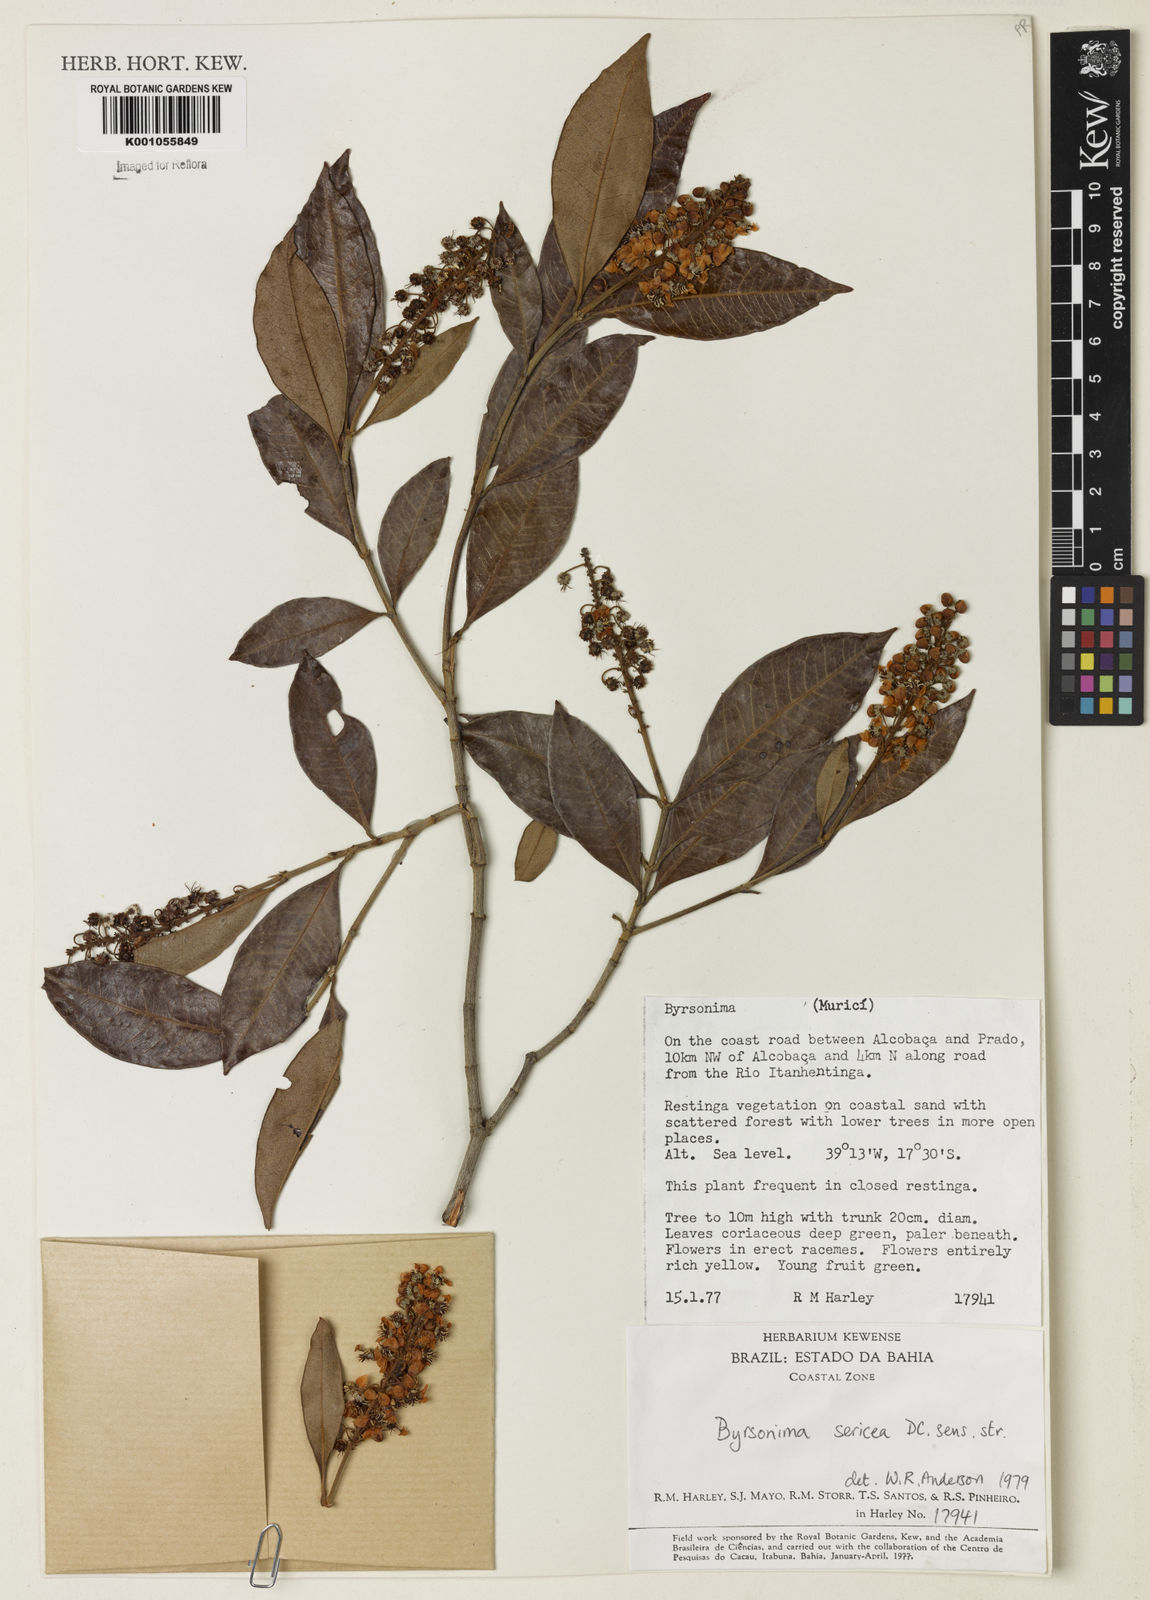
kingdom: Plantae
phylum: Tracheophyta
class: Magnoliopsida
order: Malpighiales
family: Malpighiaceae
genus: Byrsonima
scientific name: Byrsonima sericea
